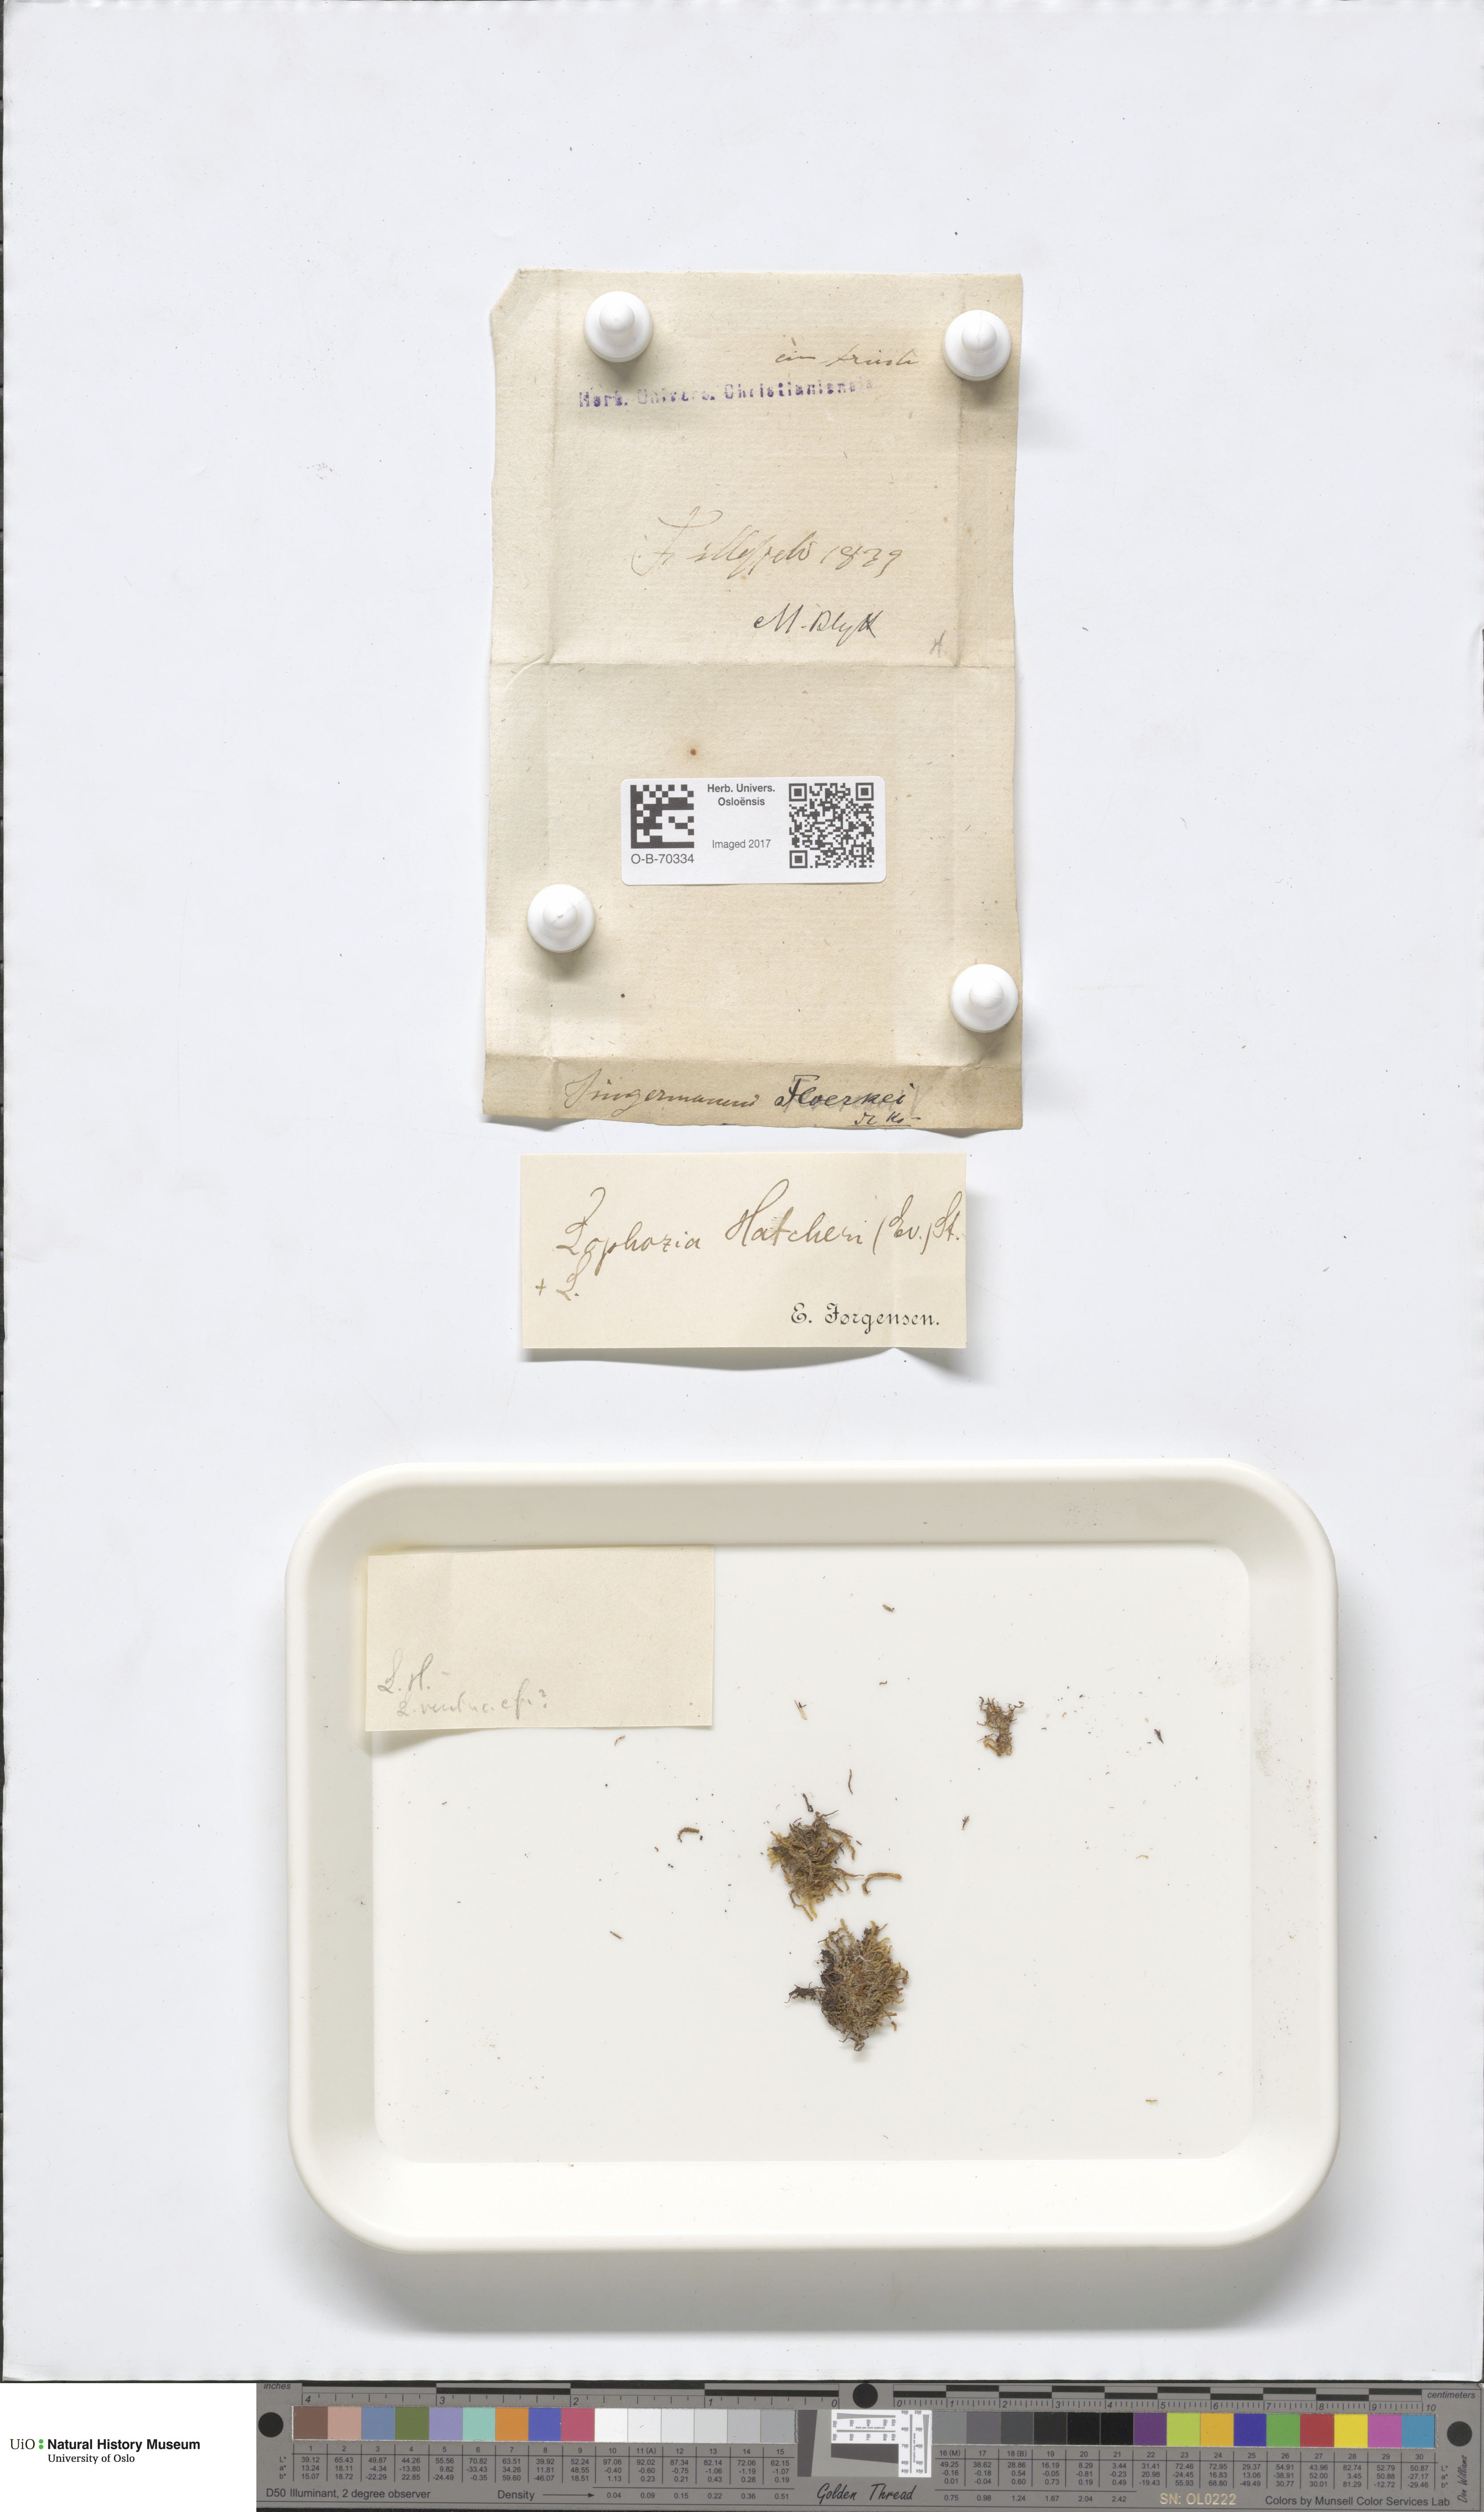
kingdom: Plantae
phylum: Marchantiophyta
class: Jungermanniopsida
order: Jungermanniales
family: Anastrophyllaceae
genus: Barbilophozia
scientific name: Barbilophozia hatcheri
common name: Hatcher s pawwort
